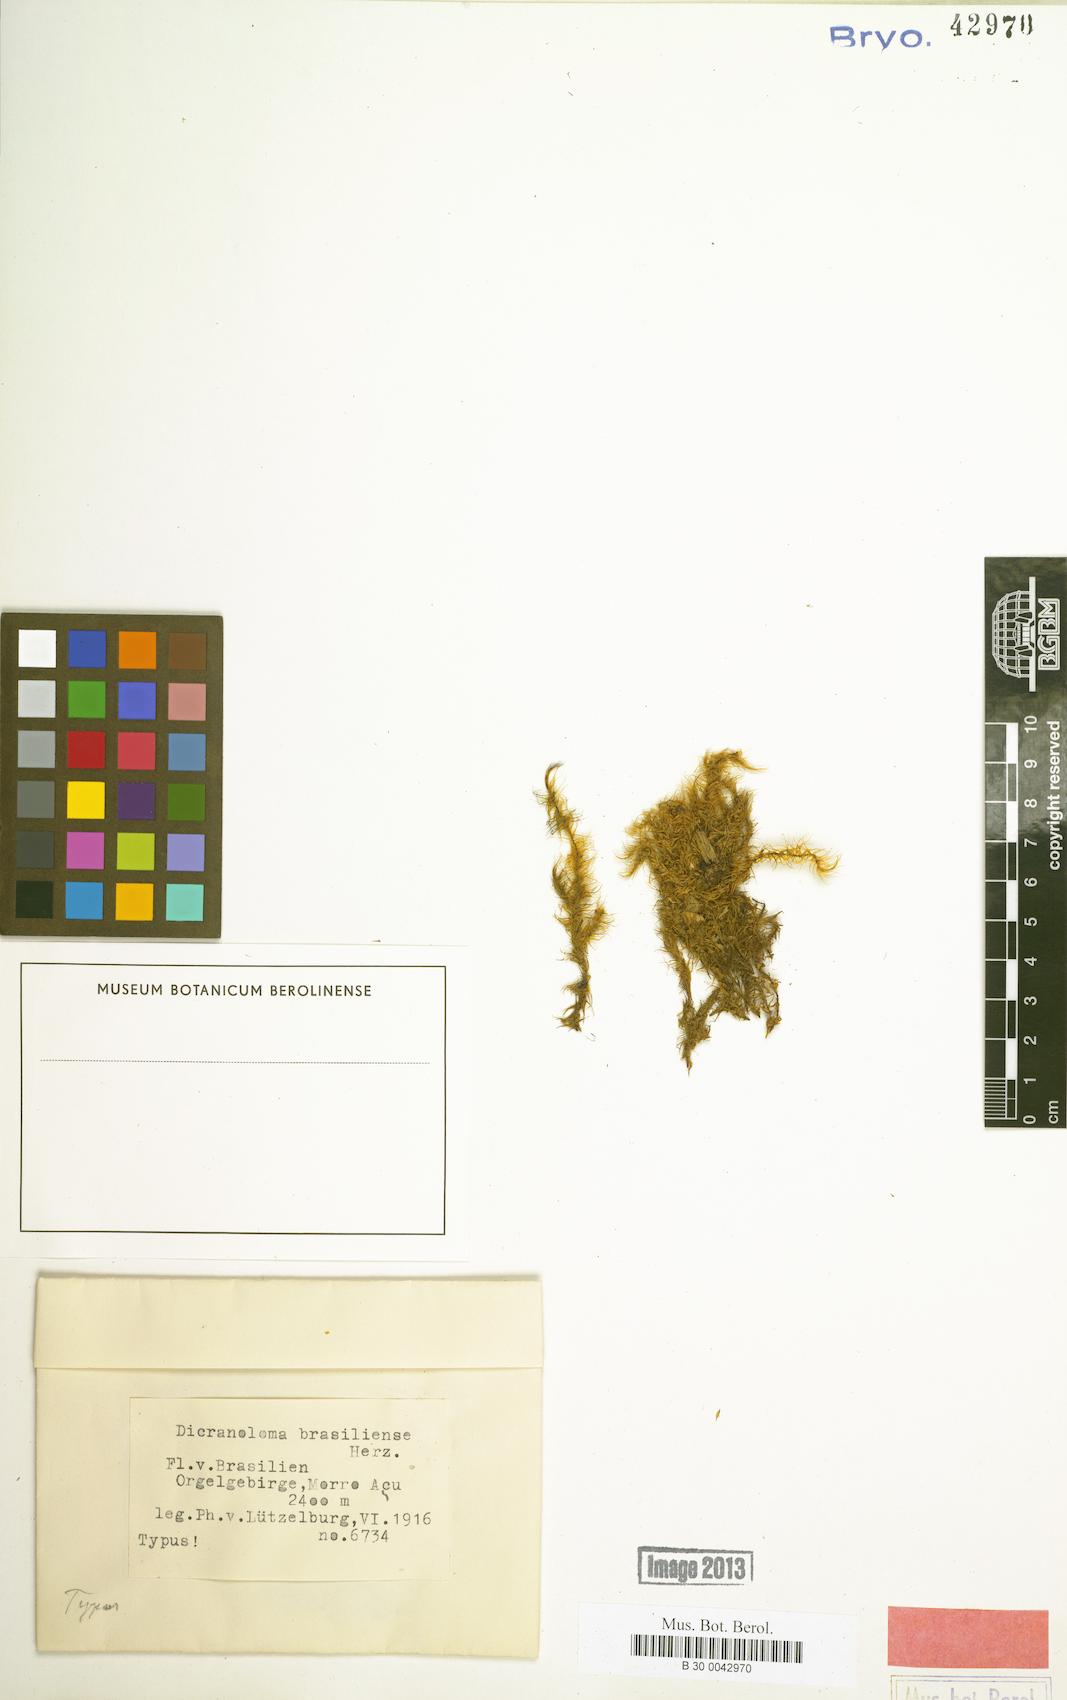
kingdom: Plantae
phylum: Bryophyta
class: Bryopsida
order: Dicranales
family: Dicranaceae
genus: Dicranoloma
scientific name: Dicranoloma brasiliense
